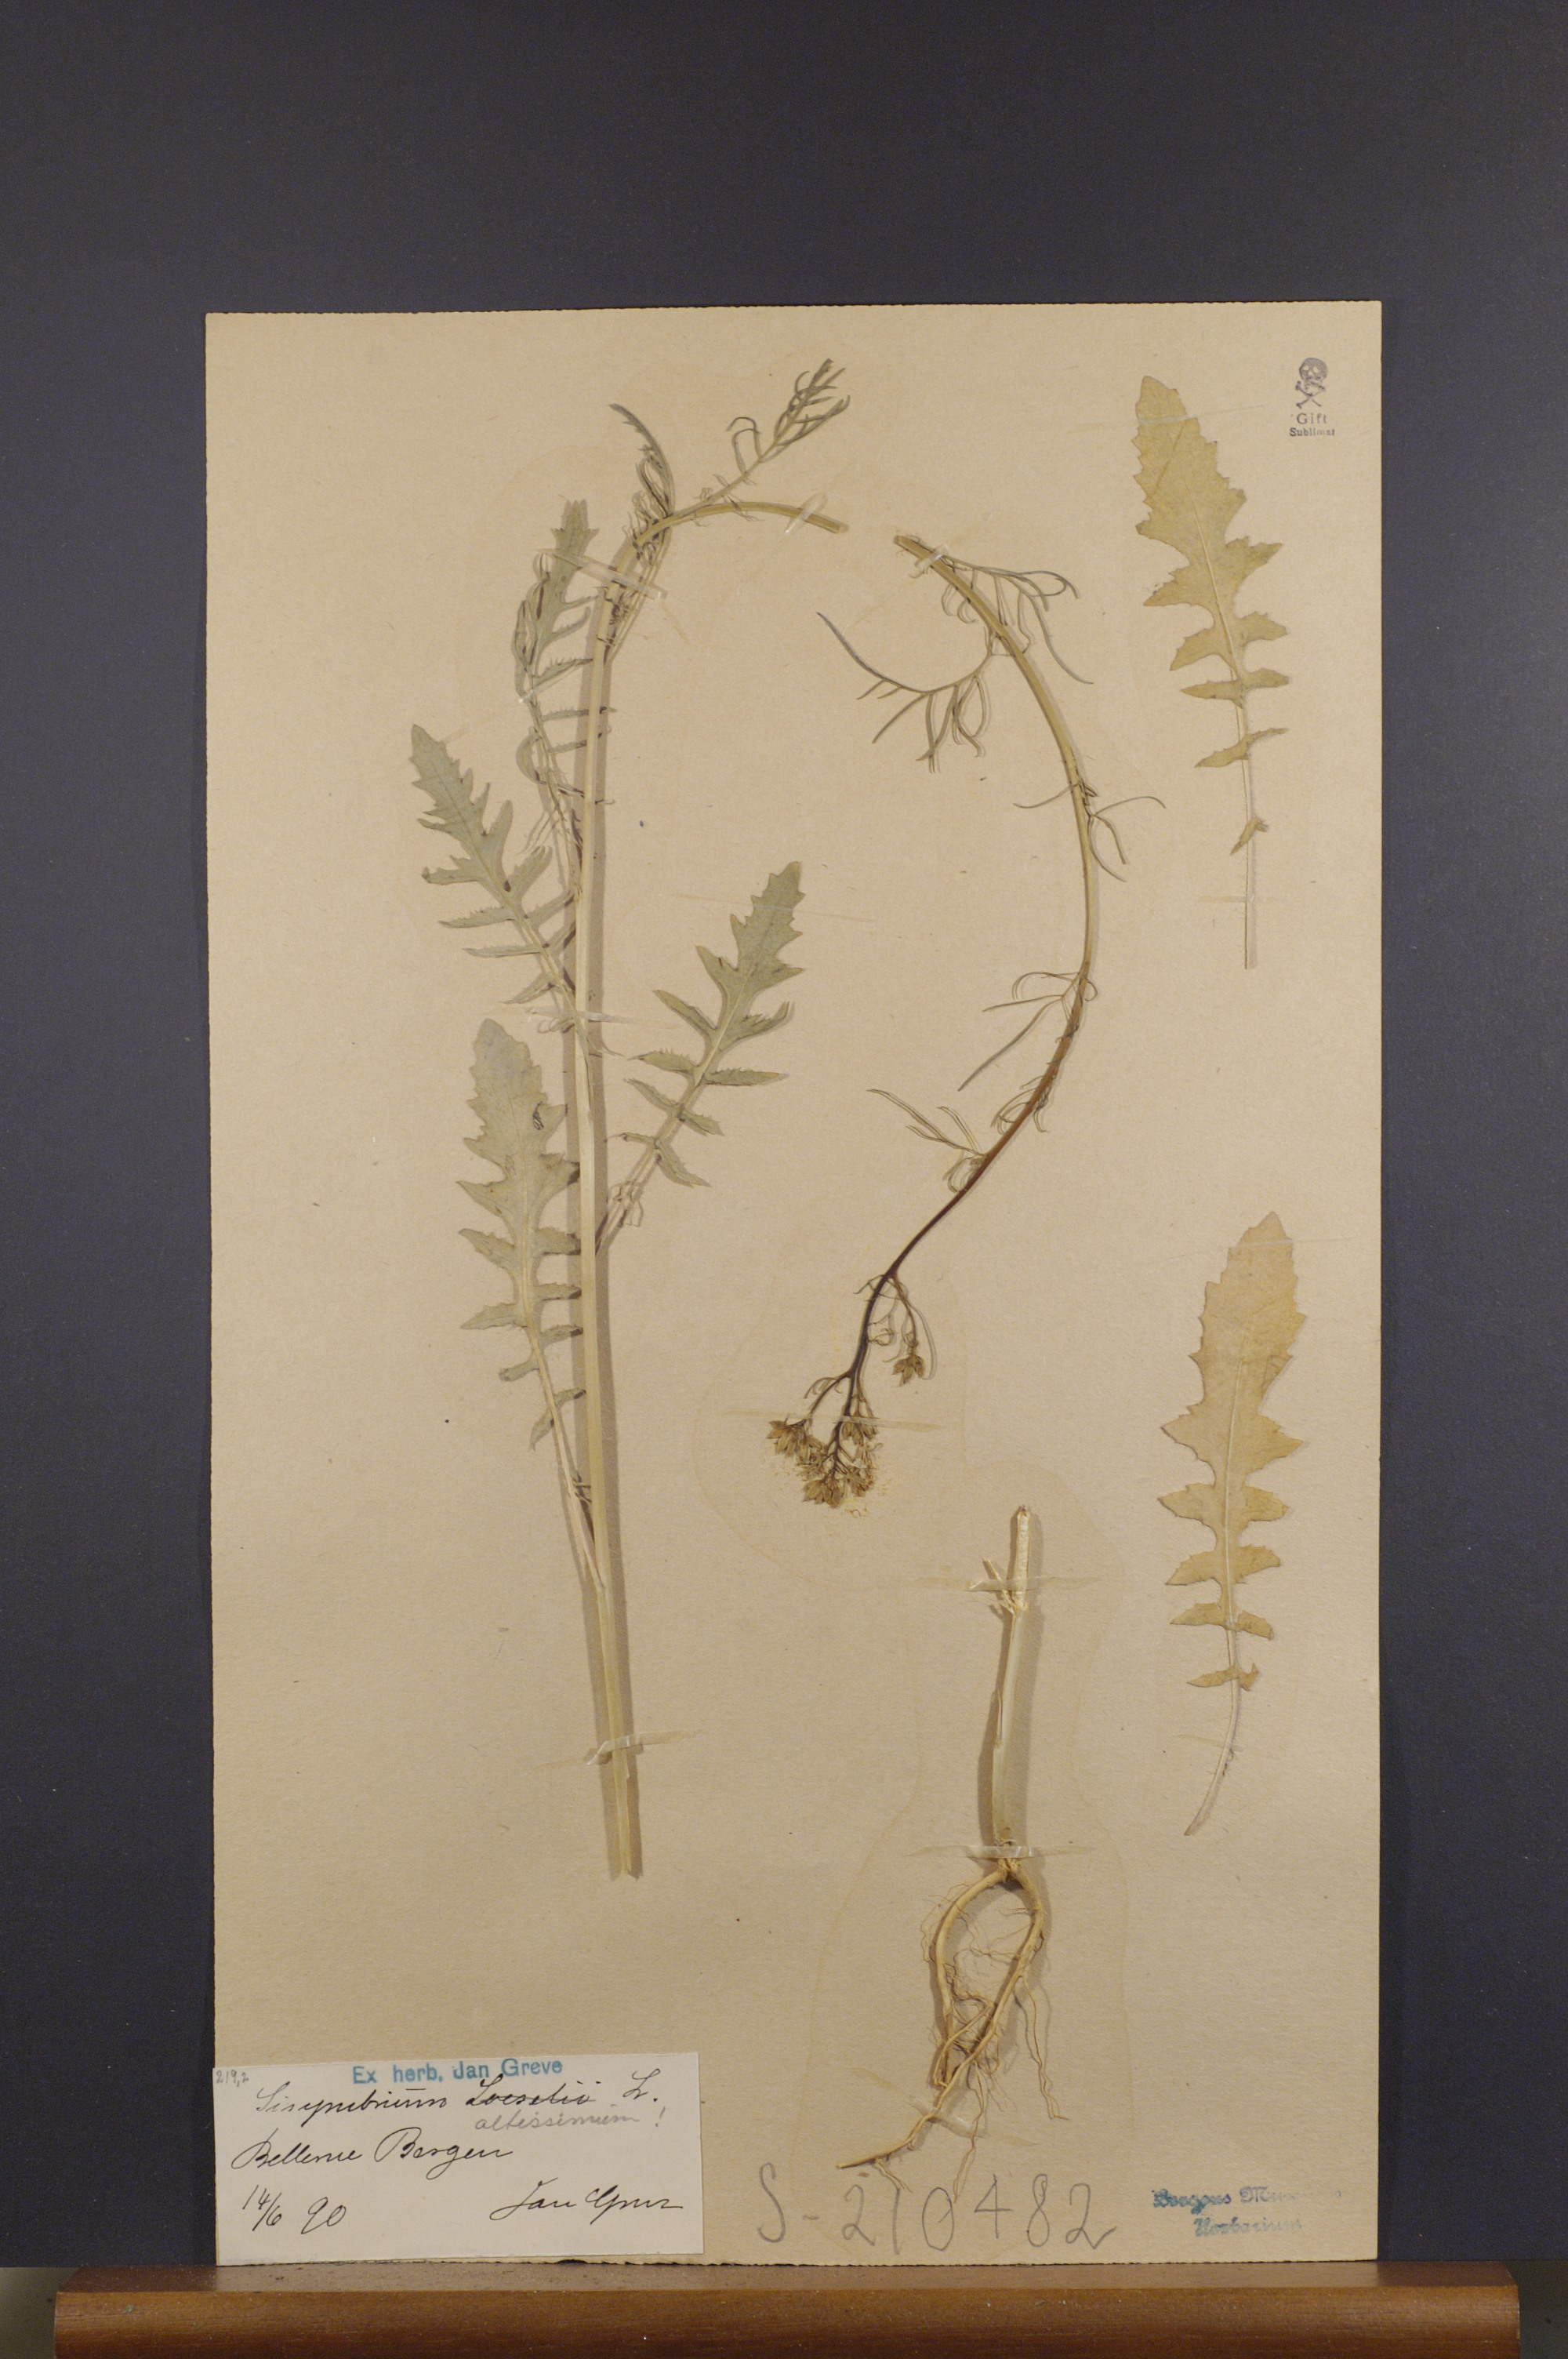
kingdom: Plantae
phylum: Tracheophyta
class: Magnoliopsida
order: Brassicales
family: Brassicaceae
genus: Sisymbrium
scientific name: Sisymbrium altissimum
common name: Tall rocket
